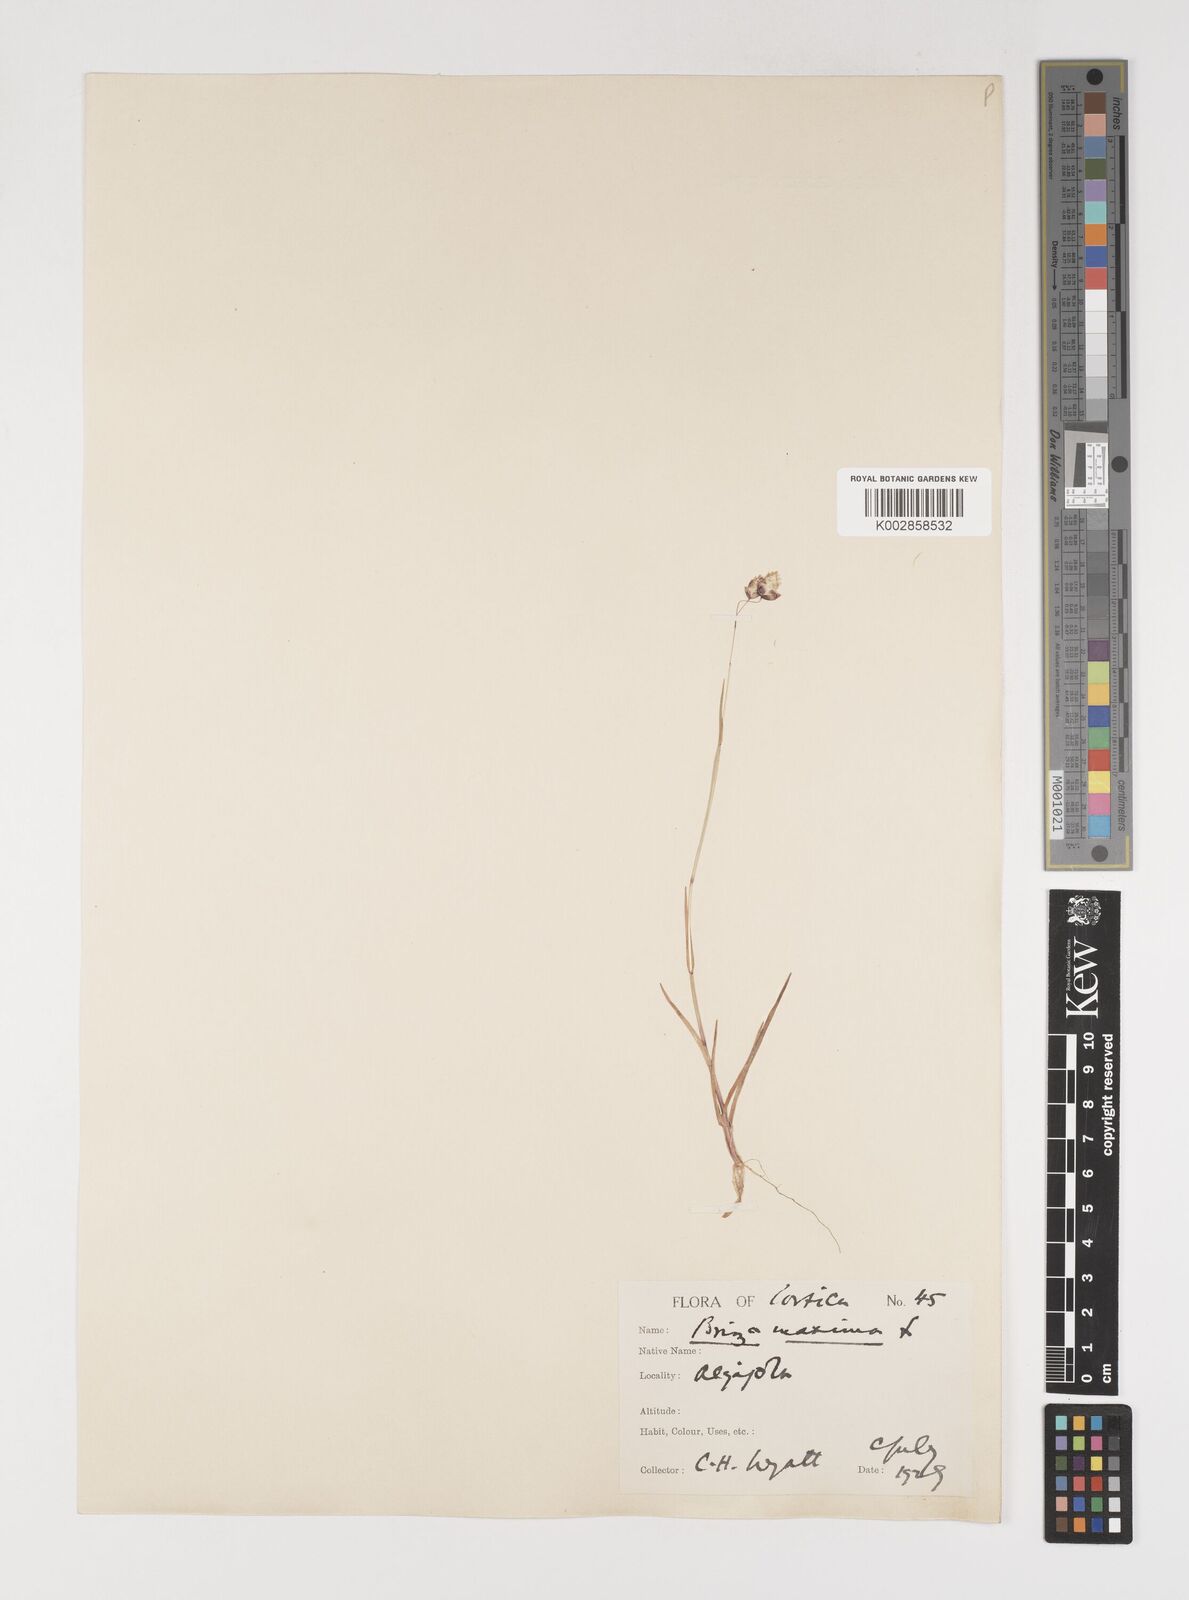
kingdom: Plantae
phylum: Tracheophyta
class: Liliopsida
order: Poales
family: Poaceae
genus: Briza
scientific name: Briza maxima
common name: Big quakinggrass
